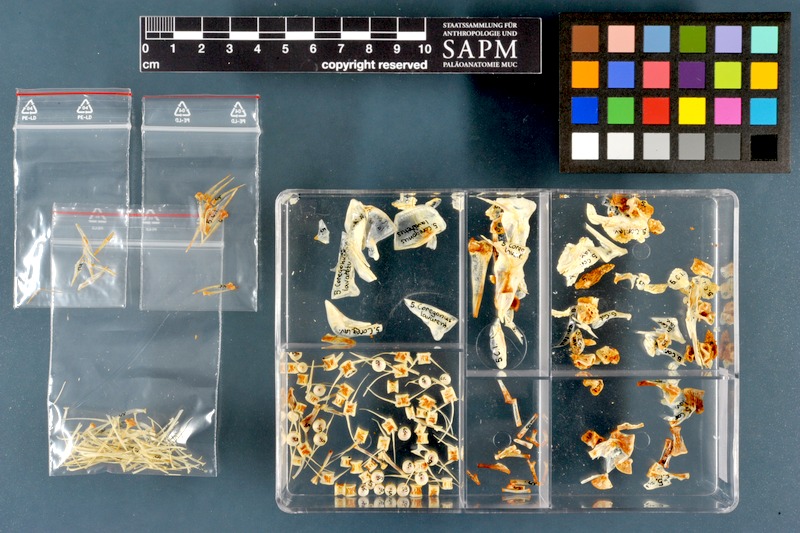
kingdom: Animalia
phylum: Chordata
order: Salmoniformes
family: Salmonidae
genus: Coregonus
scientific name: Coregonus lavaretus
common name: Schelly
